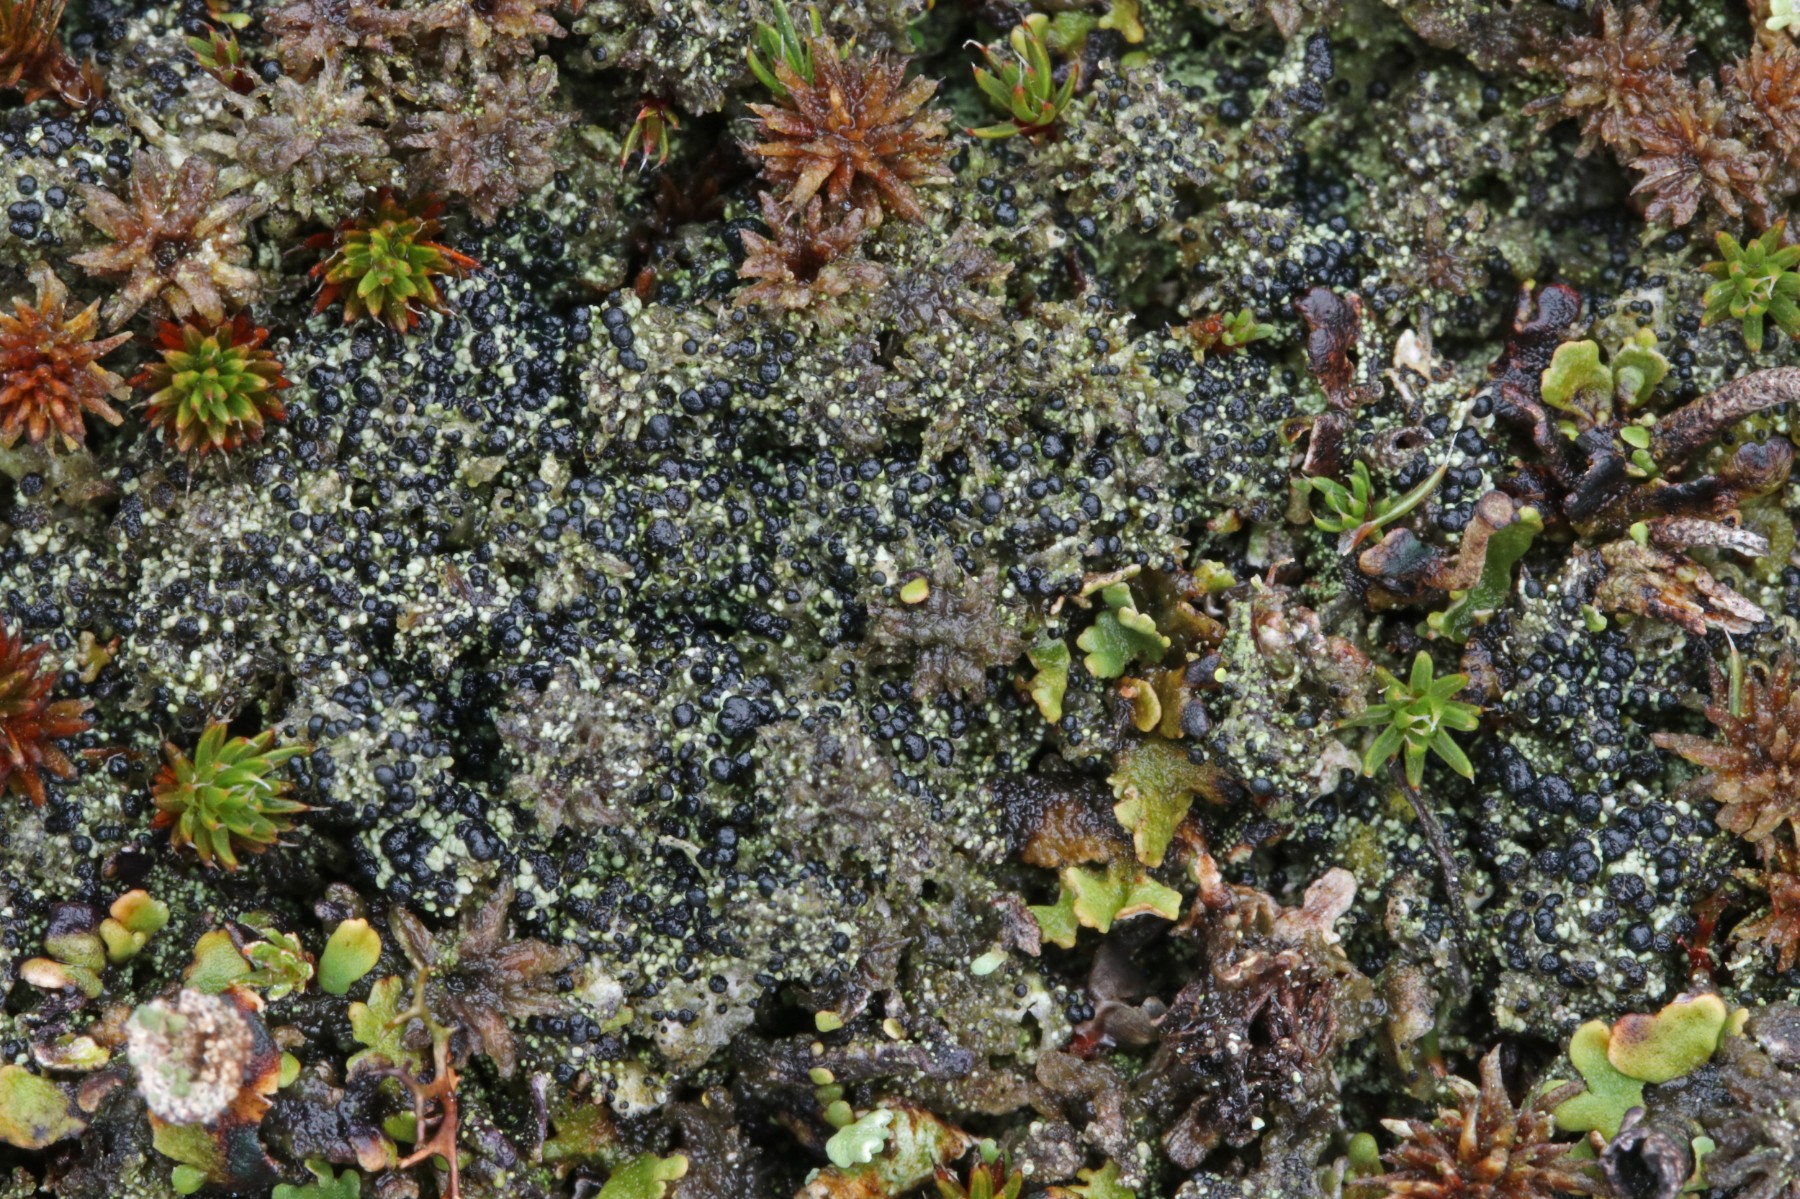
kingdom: Fungi
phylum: Ascomycota
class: Lecanoromycetes
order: Lecanorales
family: Byssolomataceae
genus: Micarea
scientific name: Micarea lignaria
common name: tørve-knaplav
